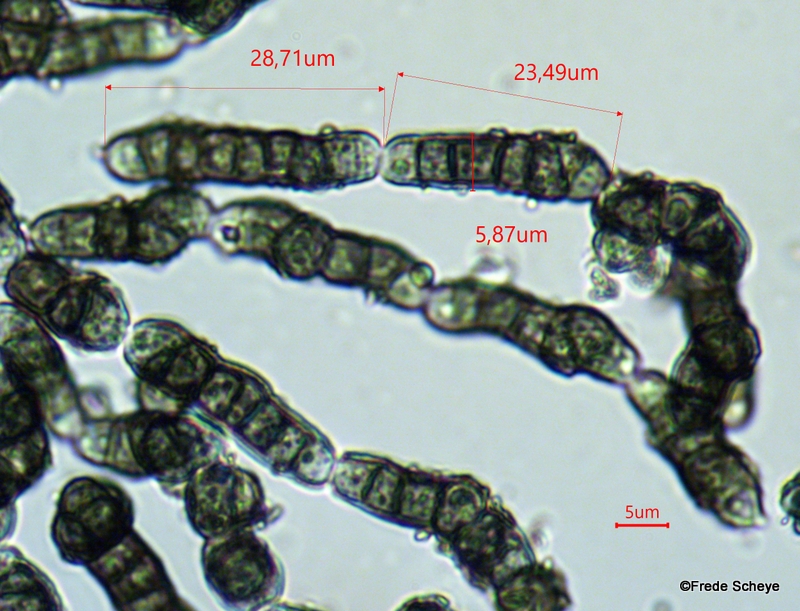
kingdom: Fungi
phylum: Ascomycota
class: Leotiomycetes
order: Helotiales
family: Mollisiaceae
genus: Trimmatostroma
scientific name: Trimmatostroma salicis
